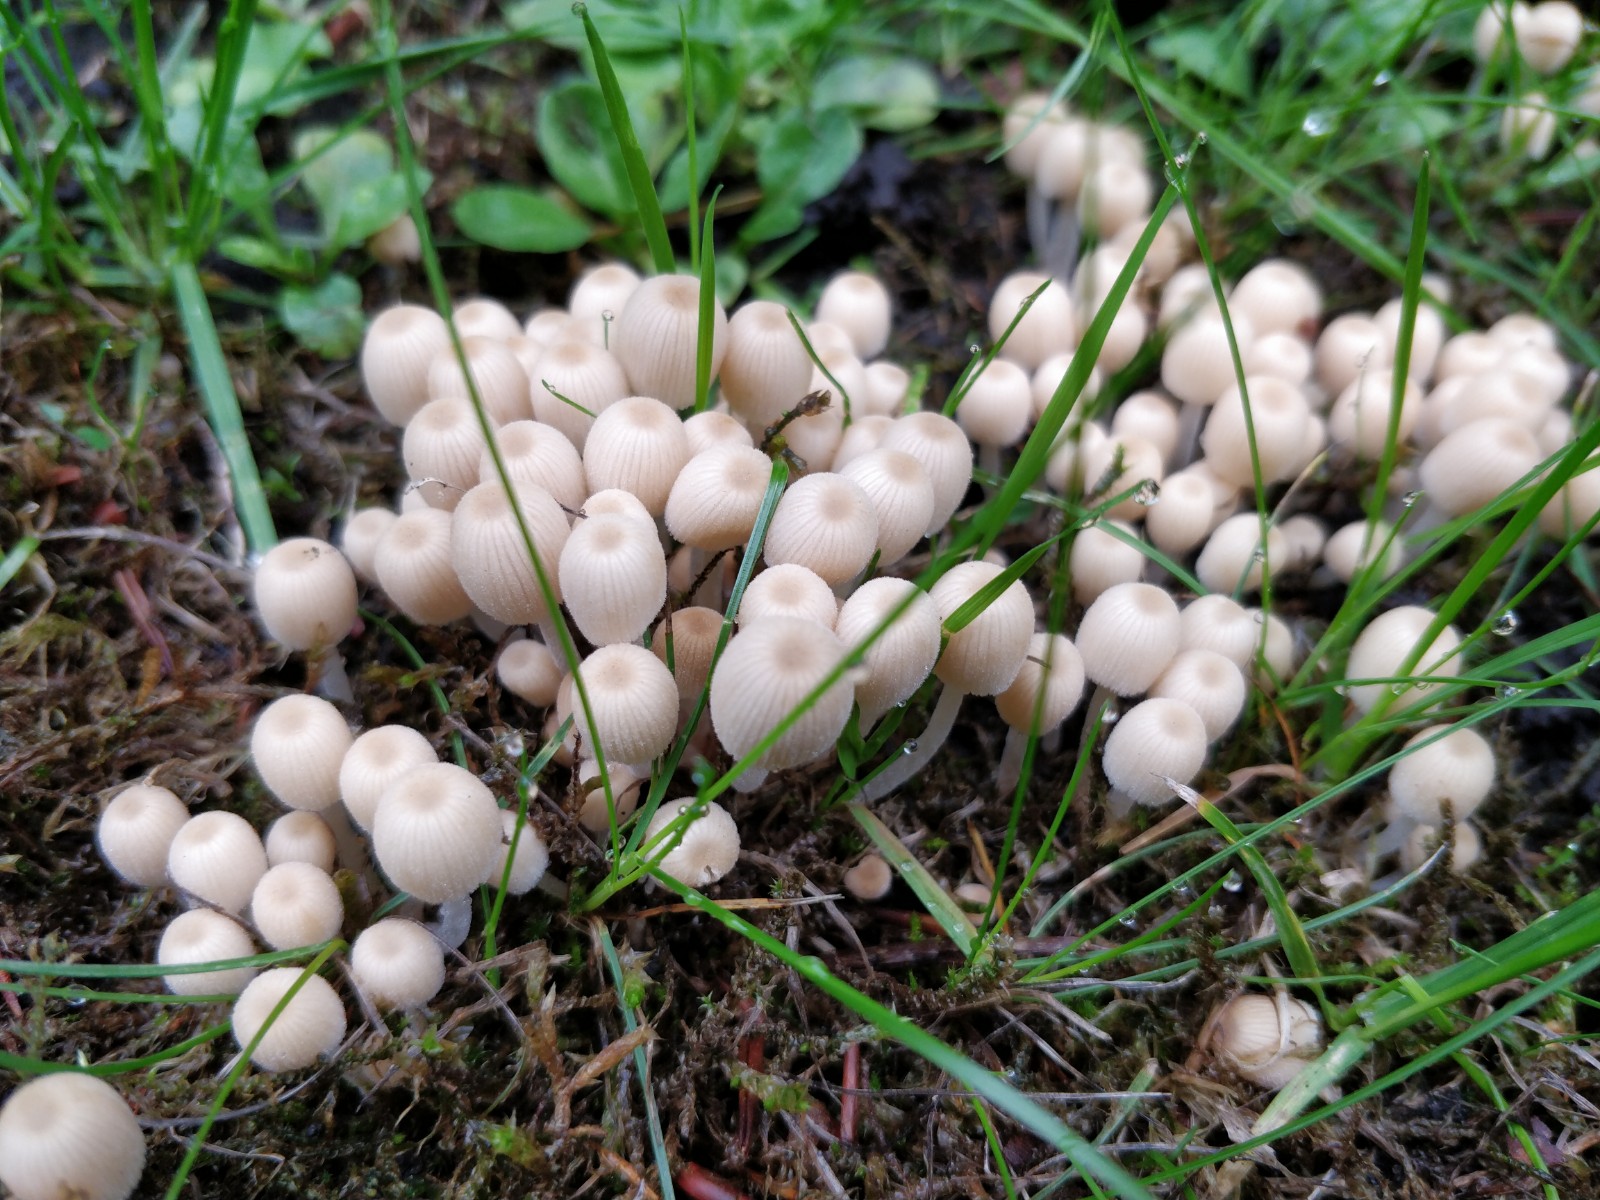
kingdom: Fungi
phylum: Basidiomycota
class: Agaricomycetes
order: Agaricales
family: Psathyrellaceae
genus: Coprinellus
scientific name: Coprinellus disseminatus
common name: bredsået blækhat
